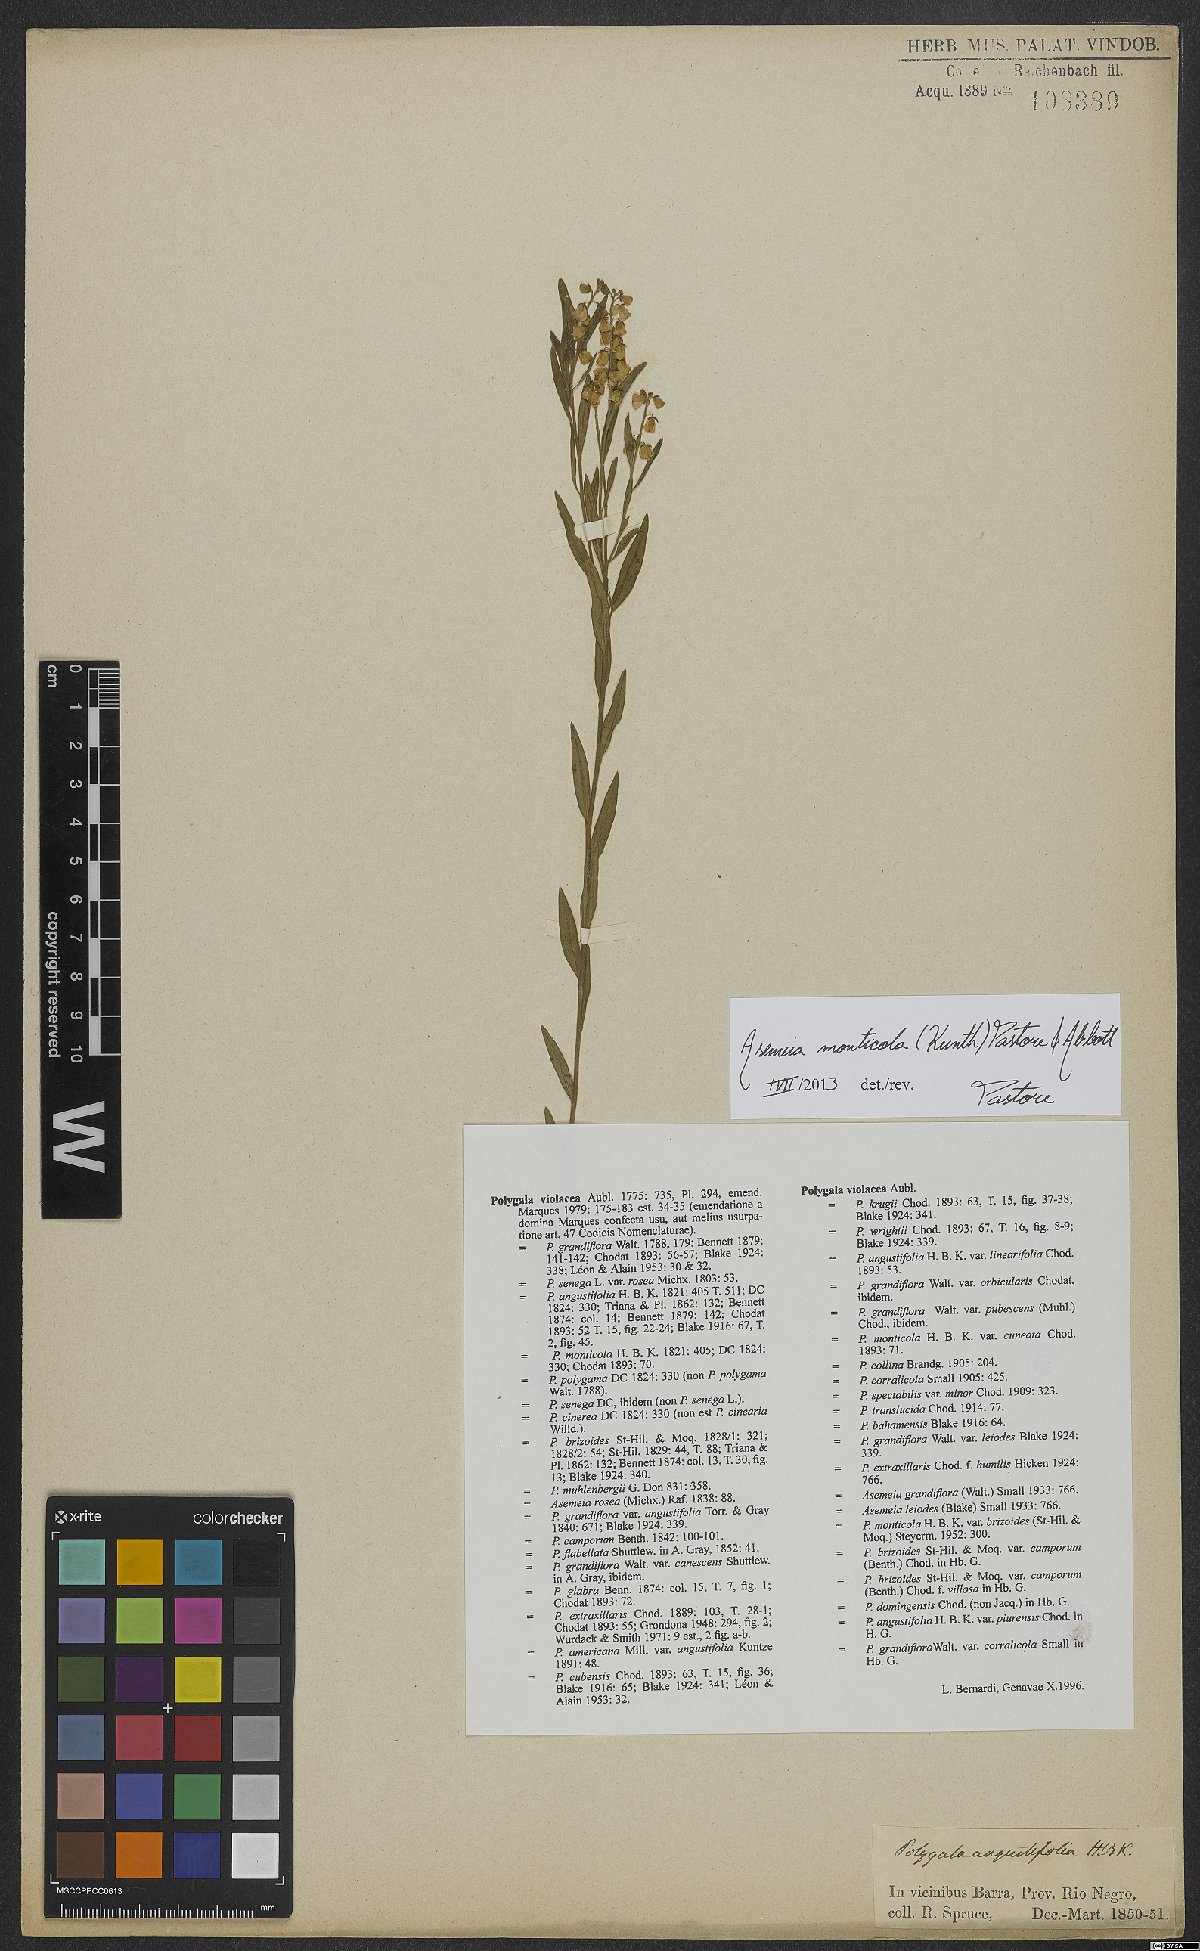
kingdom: Plantae
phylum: Tracheophyta
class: Magnoliopsida
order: Fabales
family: Polygalaceae
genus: Asemeia
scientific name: Asemeia monticola
